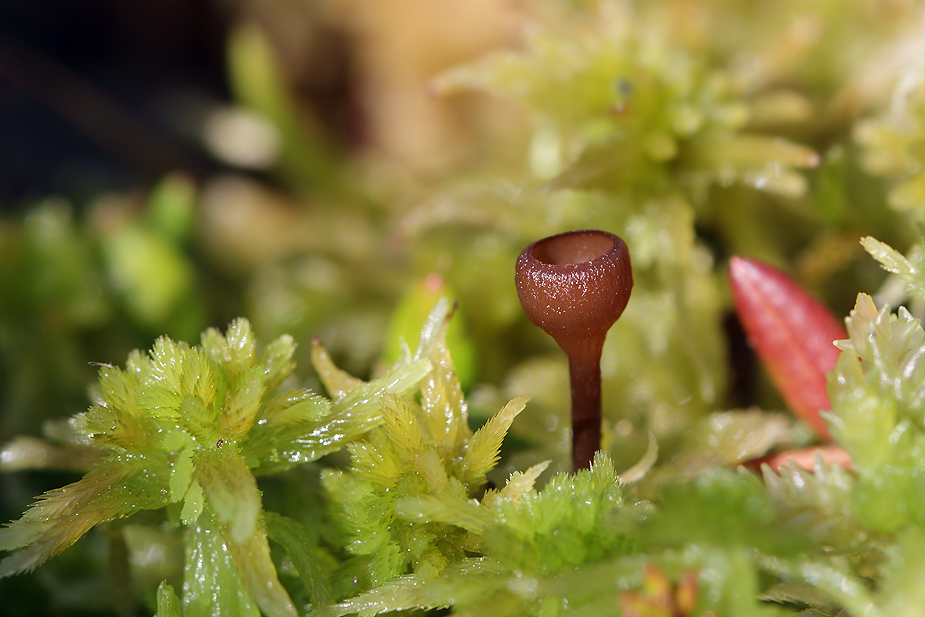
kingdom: Fungi
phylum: Ascomycota
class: Leotiomycetes
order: Helotiales
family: Sclerotiniaceae
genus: Monilinia
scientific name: Monilinia oxycocci
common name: tranebær-knoldskive
